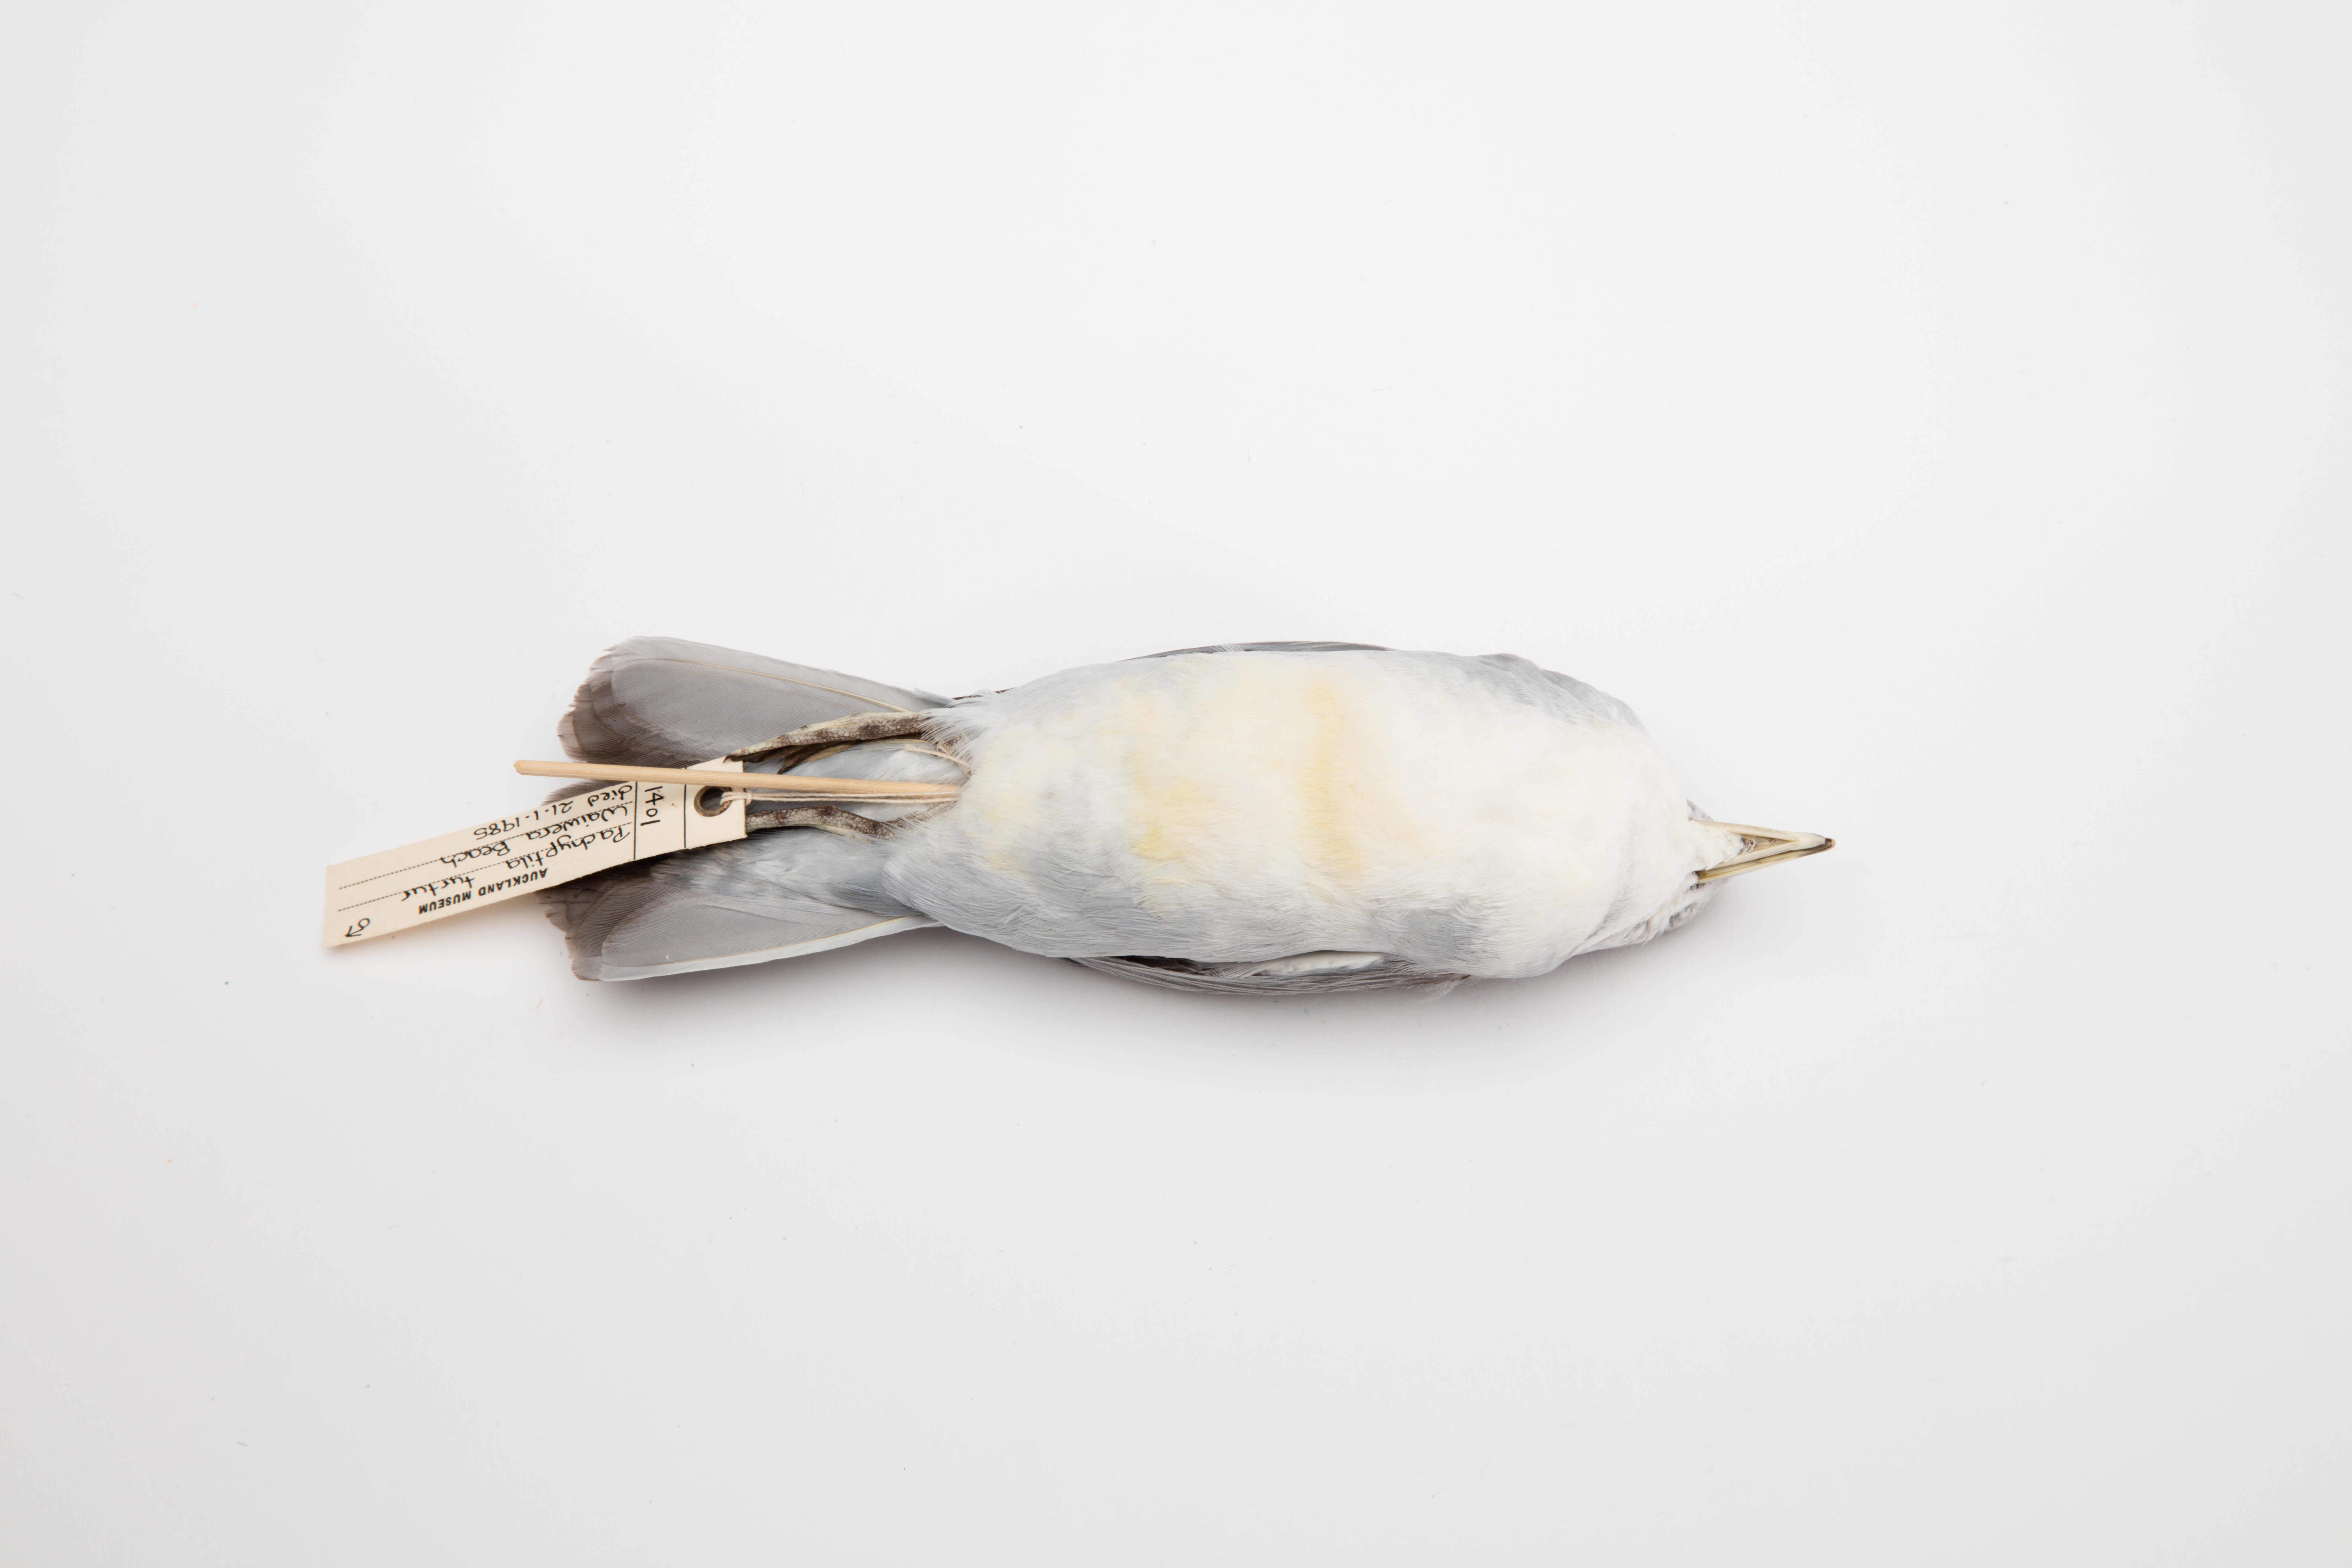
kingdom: Animalia
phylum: Chordata
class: Aves
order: Procellariiformes
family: Procellariidae
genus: Pachyptila
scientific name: Pachyptila turtur
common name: Fairy prion
